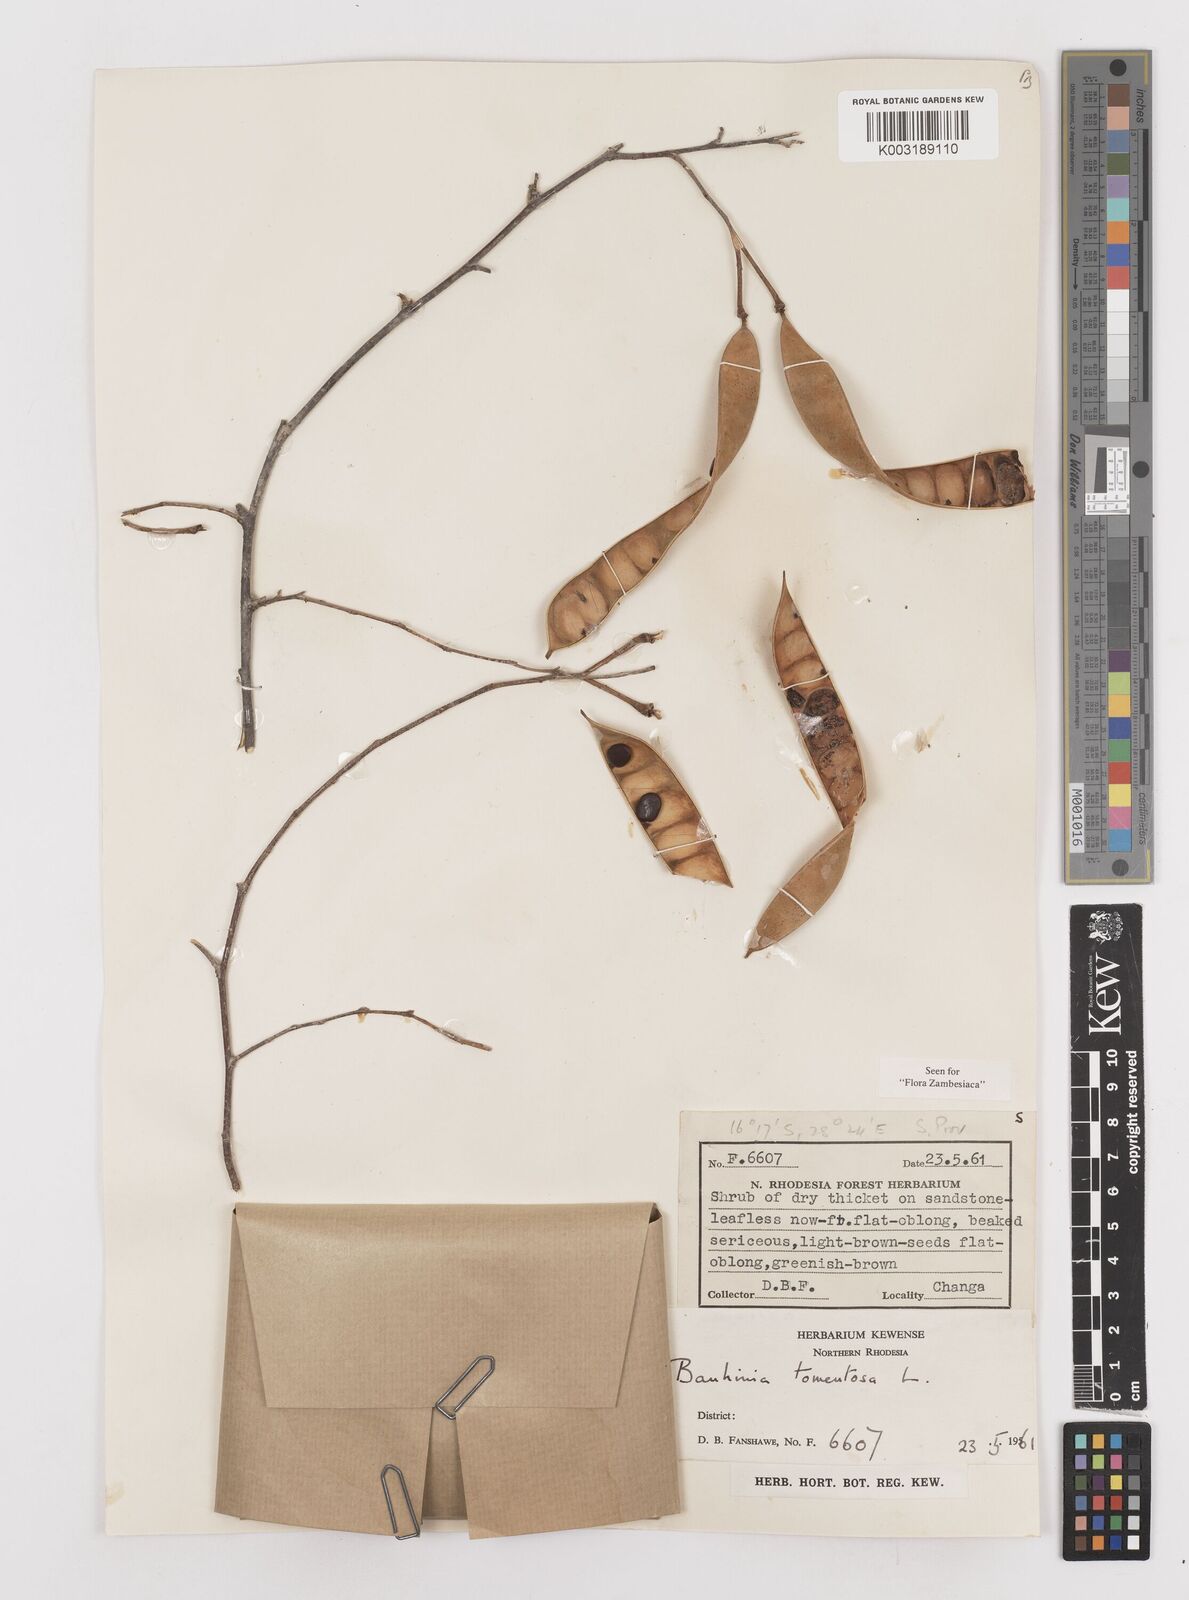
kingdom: Plantae
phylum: Tracheophyta
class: Magnoliopsida
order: Fabales
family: Fabaceae
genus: Bauhinia
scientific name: Bauhinia tomentosa
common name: Bell bauhinia
